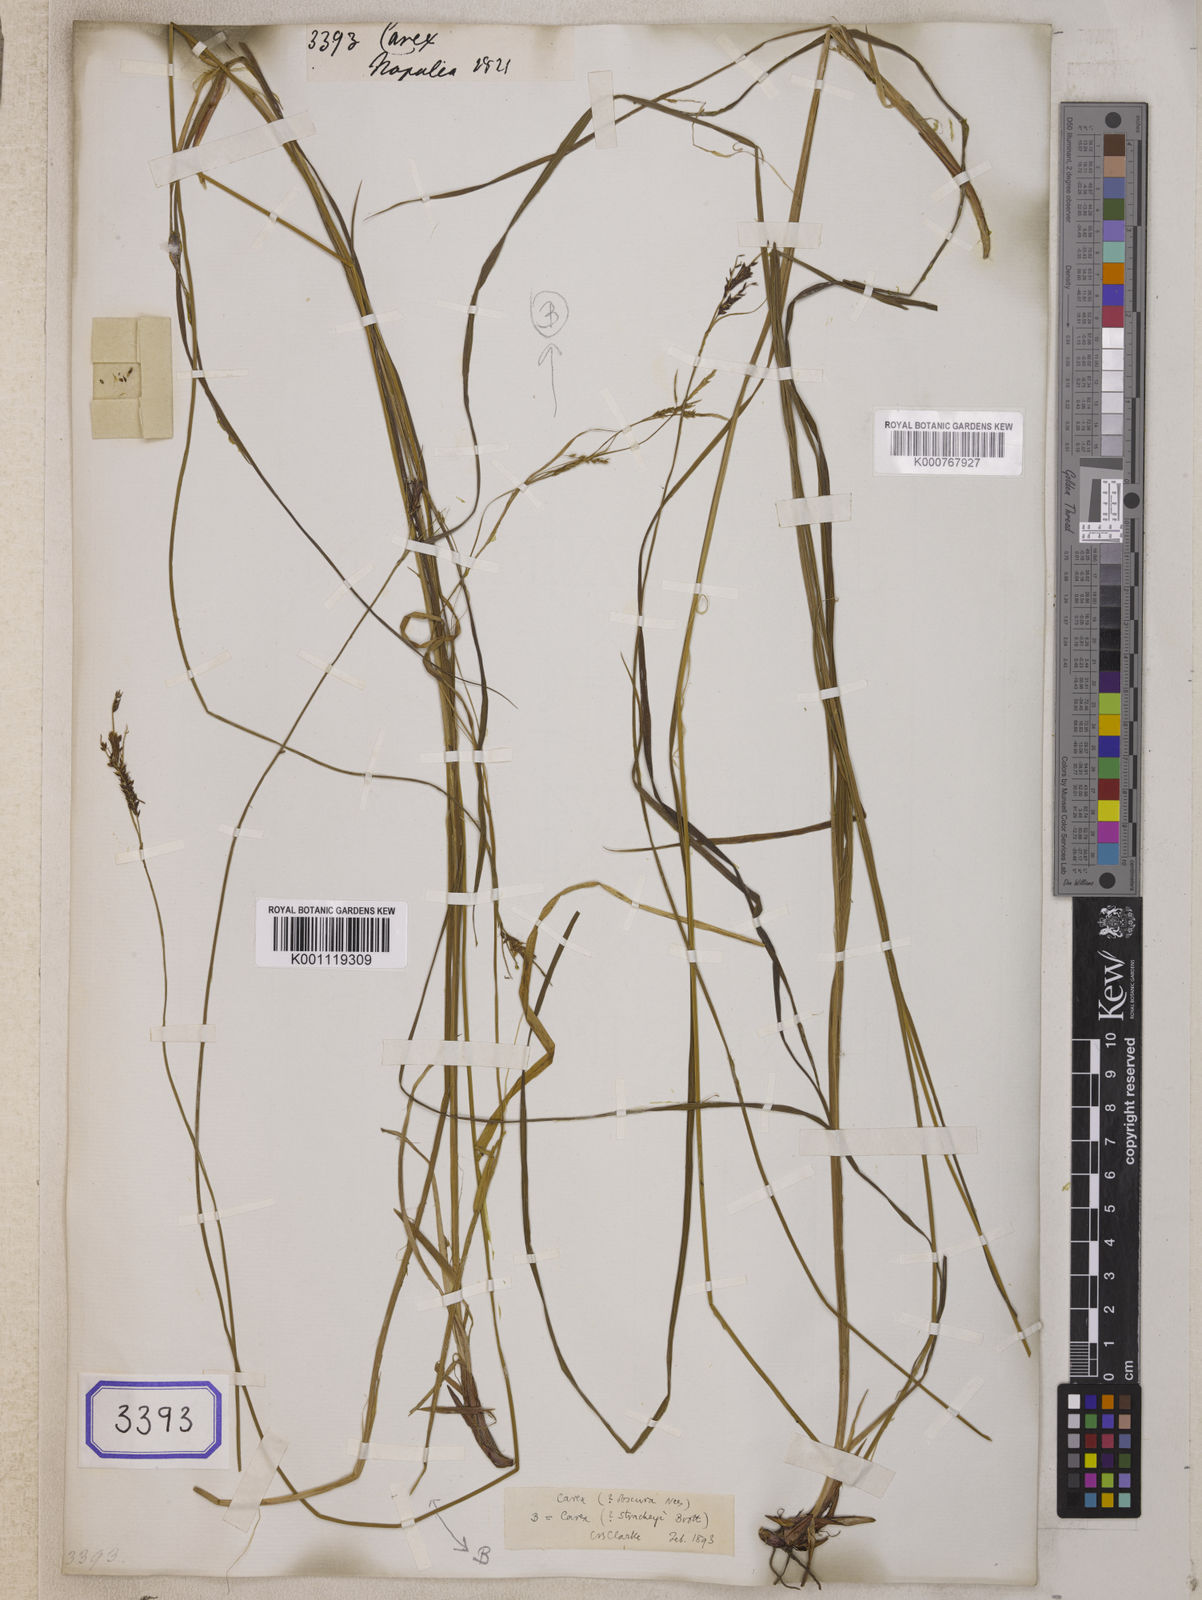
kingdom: Plantae
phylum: Tracheophyta
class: Liliopsida
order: Poales
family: Cyperaceae
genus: Carex
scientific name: Carex
